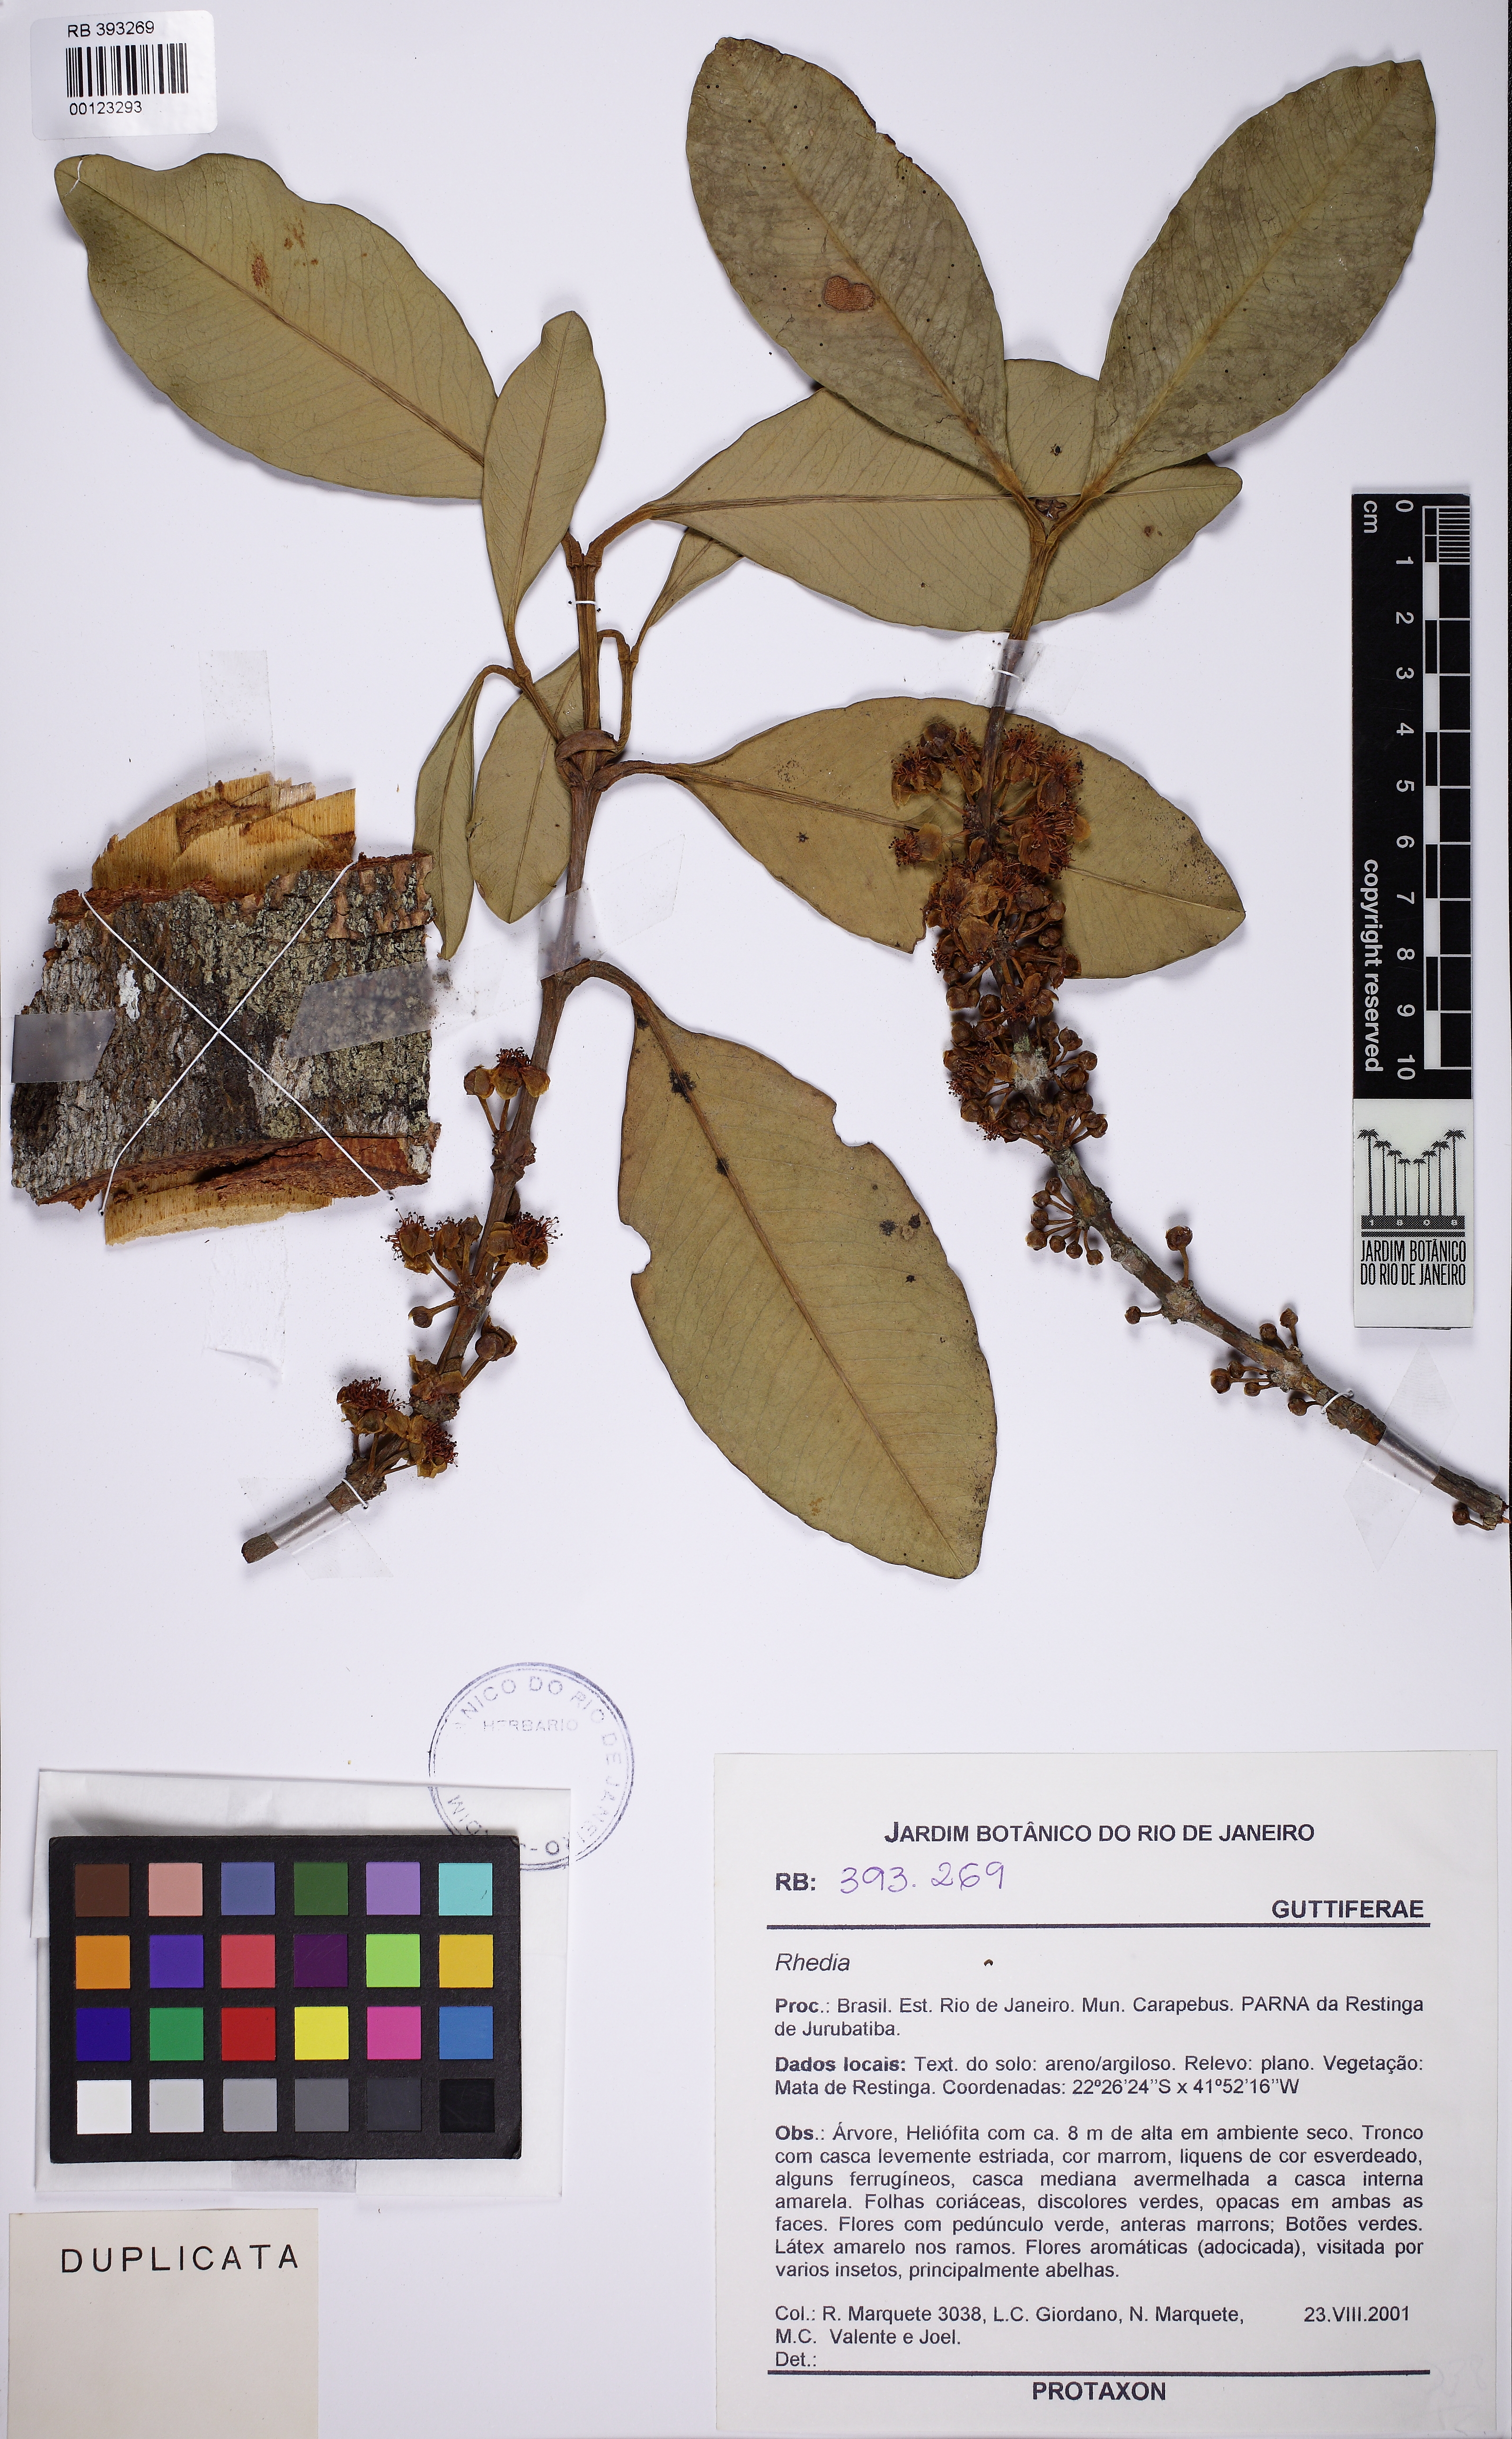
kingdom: Plantae
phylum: Tracheophyta
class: Magnoliopsida
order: Malpighiales
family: Clusiaceae
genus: Garcinia
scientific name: Garcinia brasiliensis
